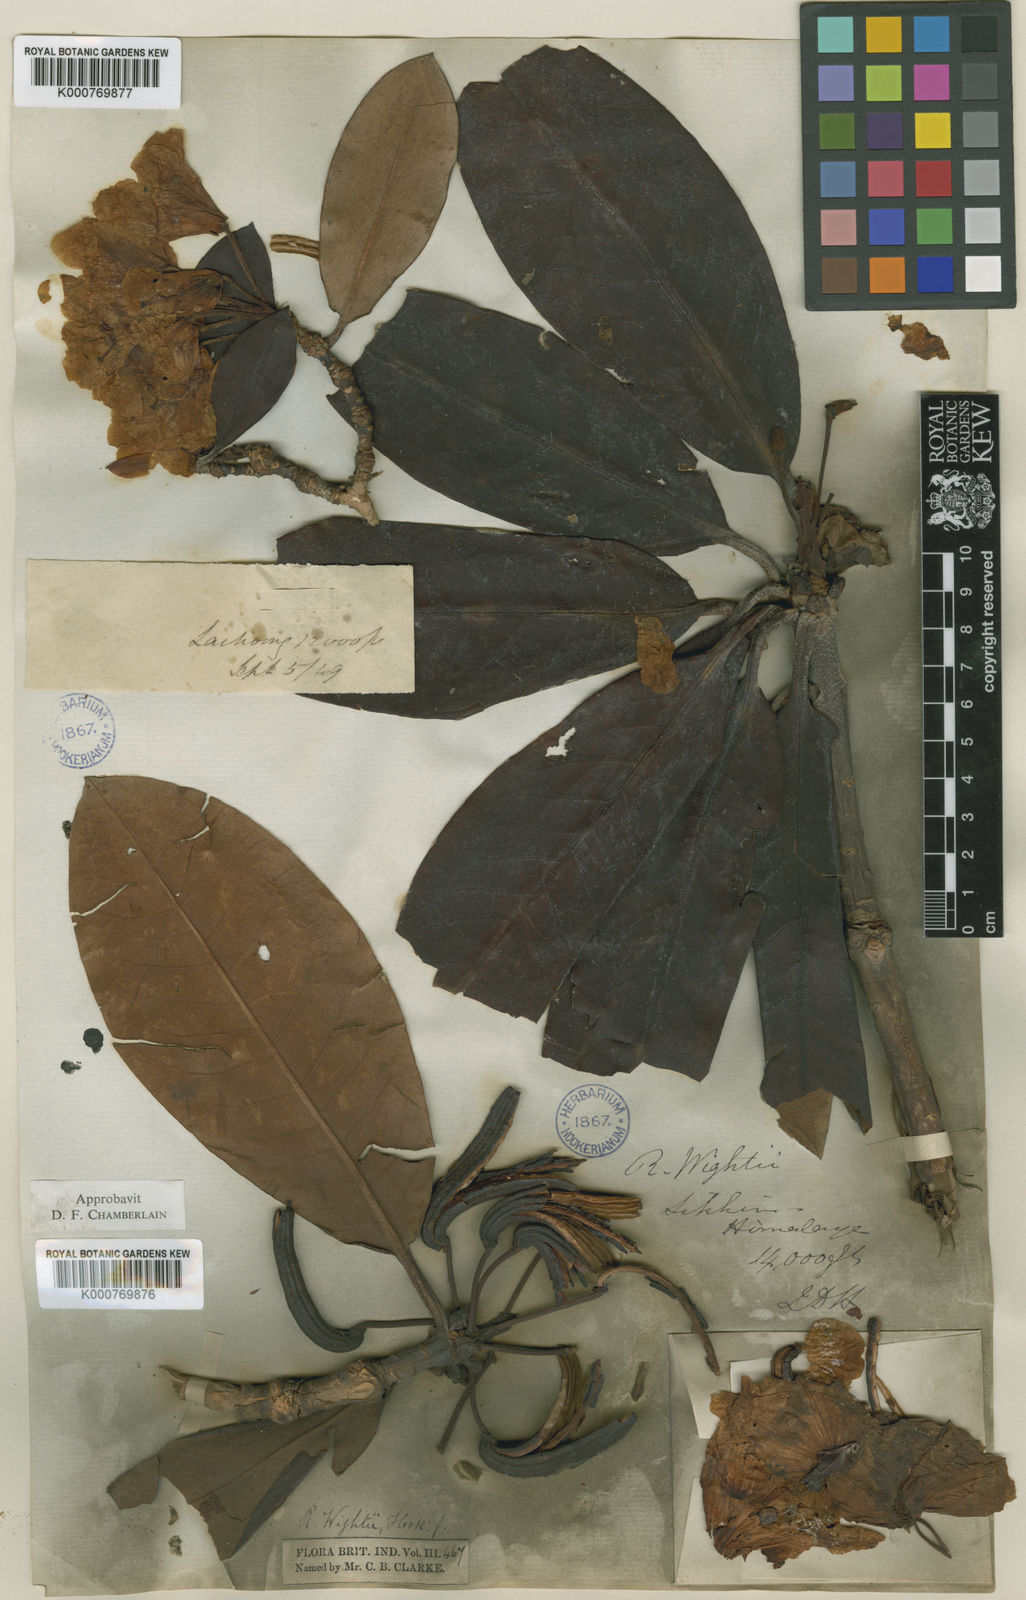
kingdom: Plantae
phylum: Tracheophyta
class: Magnoliopsida
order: Ericales
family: Ericaceae
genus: Rhododendron
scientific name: Rhododendron wightii
